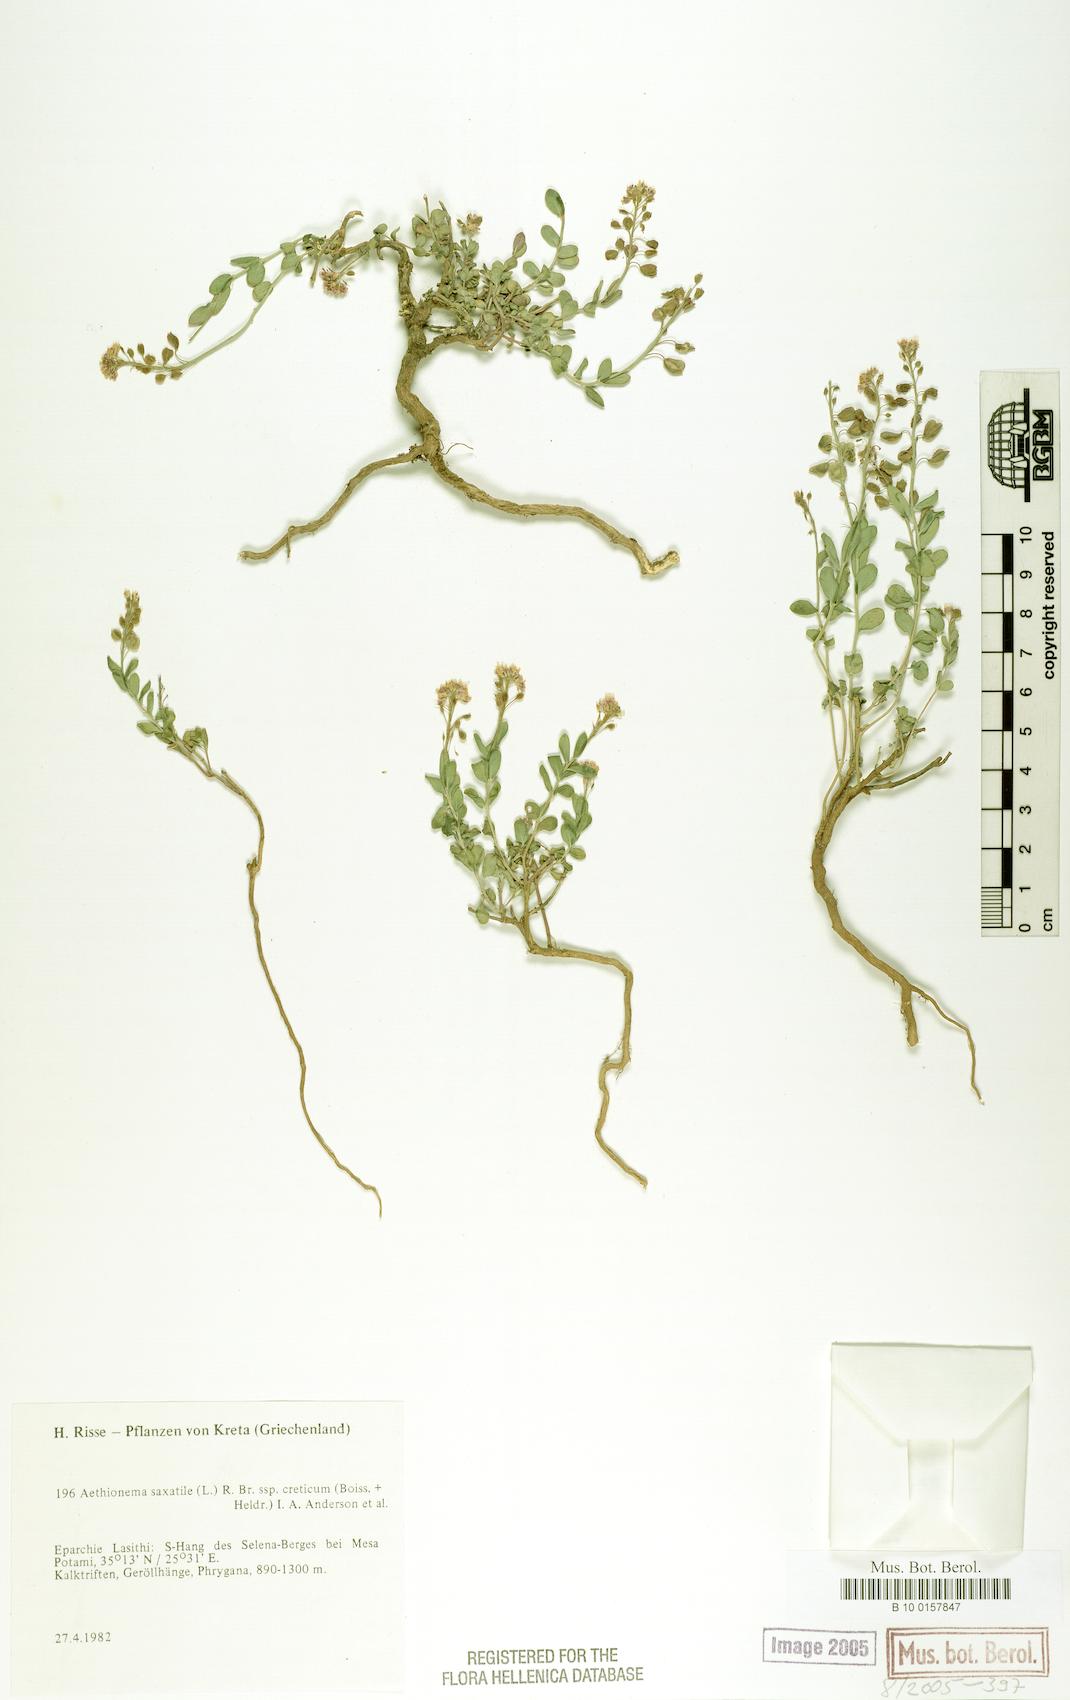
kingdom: Plantae
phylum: Tracheophyta
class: Magnoliopsida
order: Brassicales
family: Brassicaceae
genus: Aethionema
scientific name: Aethionema saxatile
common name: Burnt candytuft
